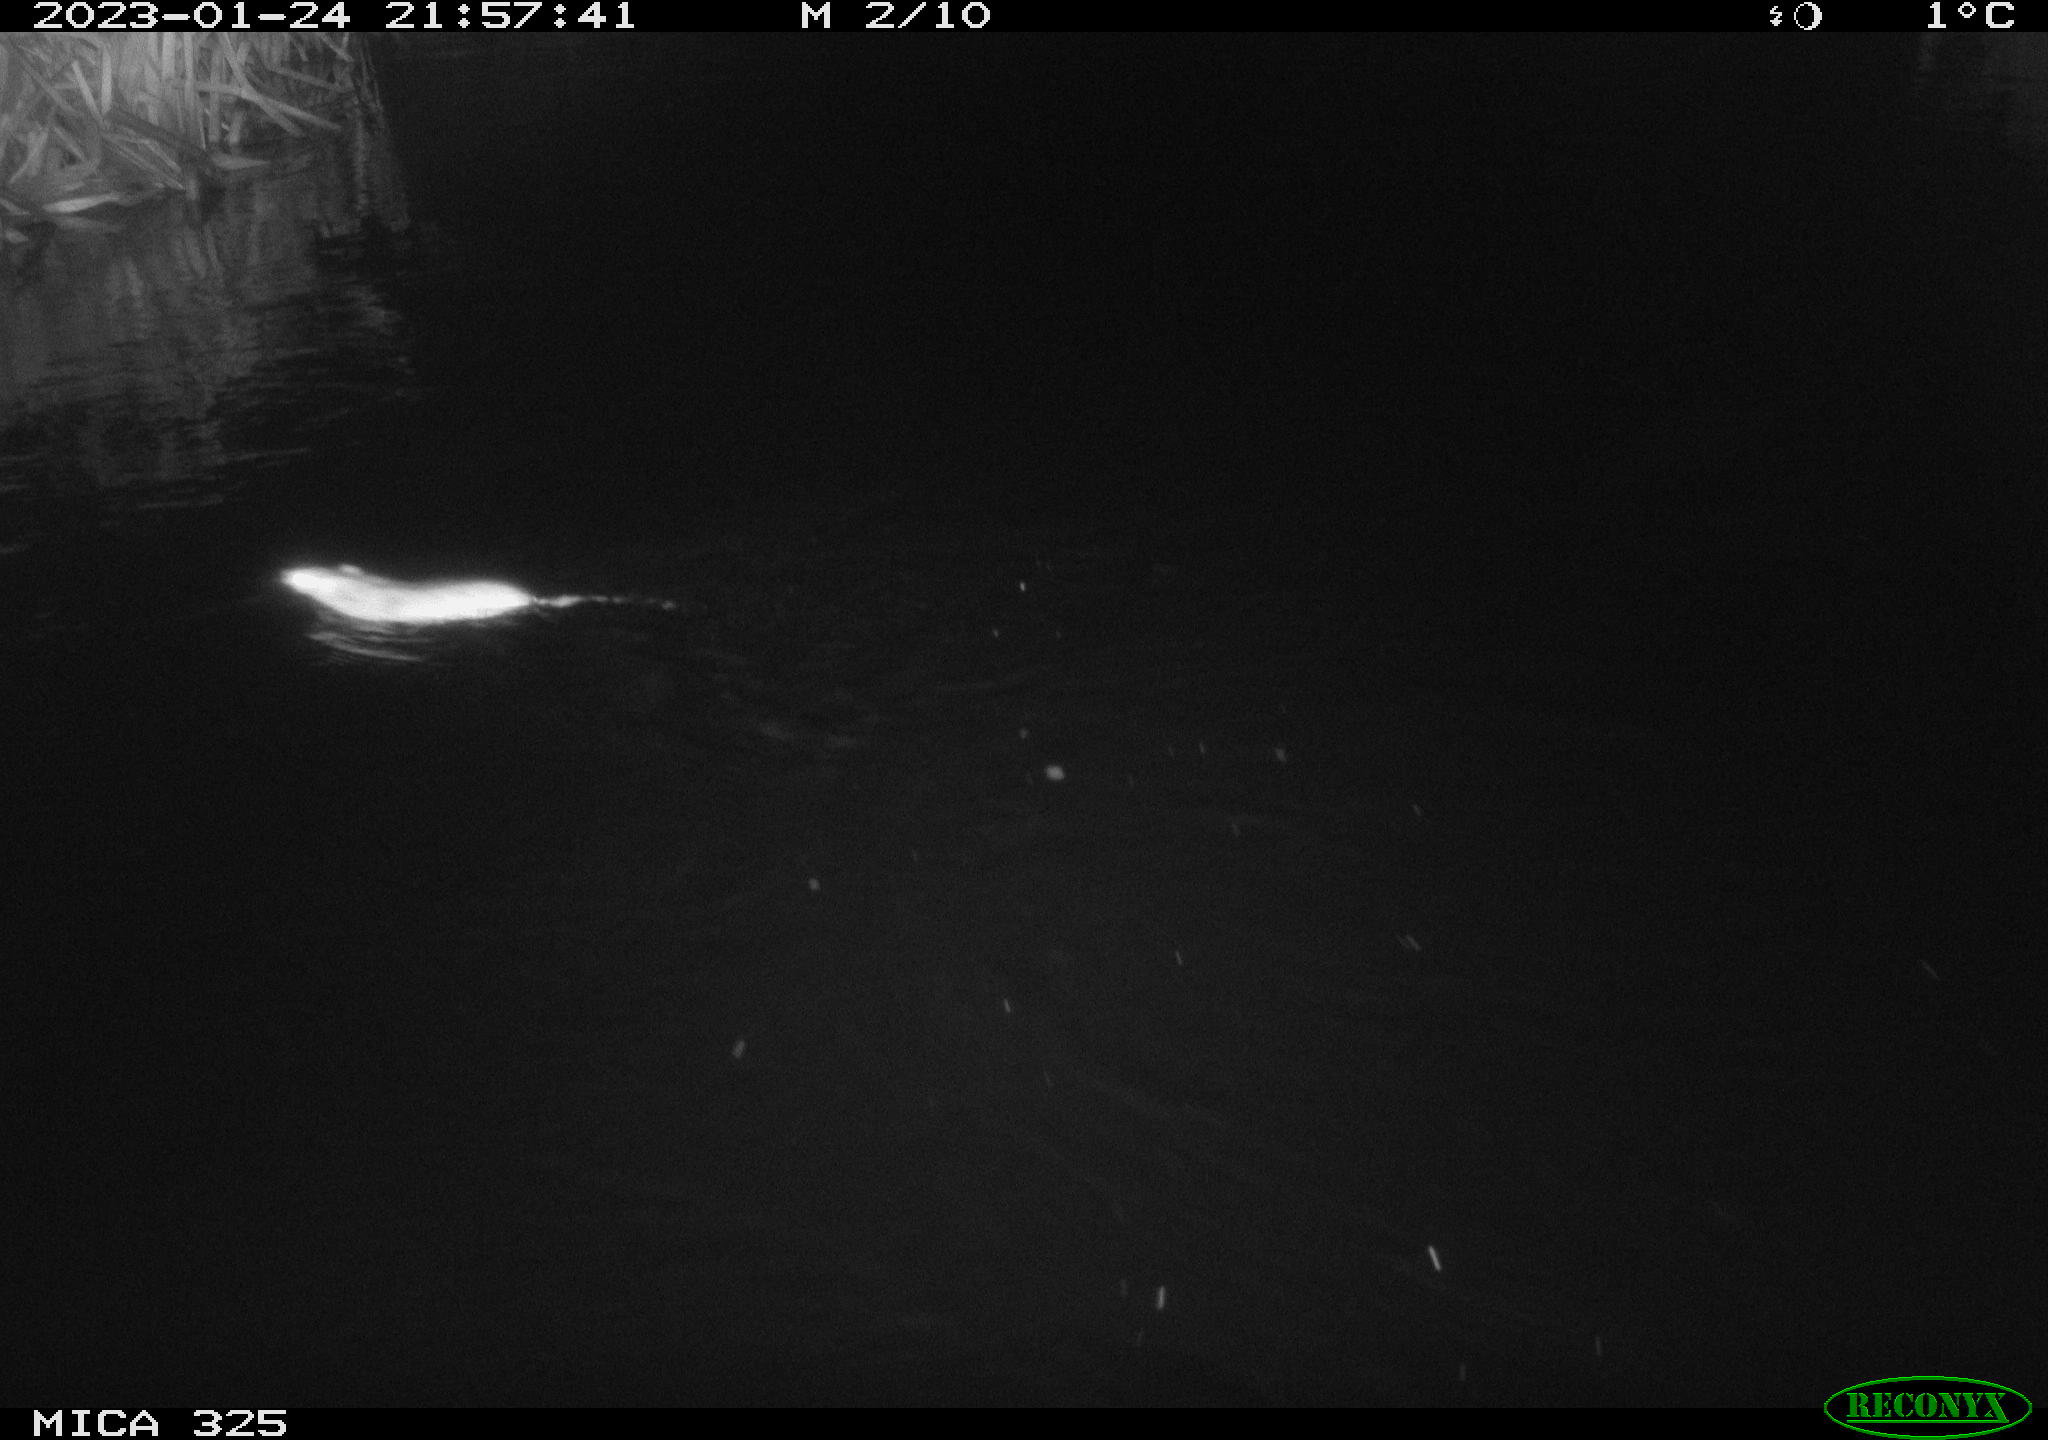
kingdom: Animalia
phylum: Chordata
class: Mammalia
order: Rodentia
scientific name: Rodentia
